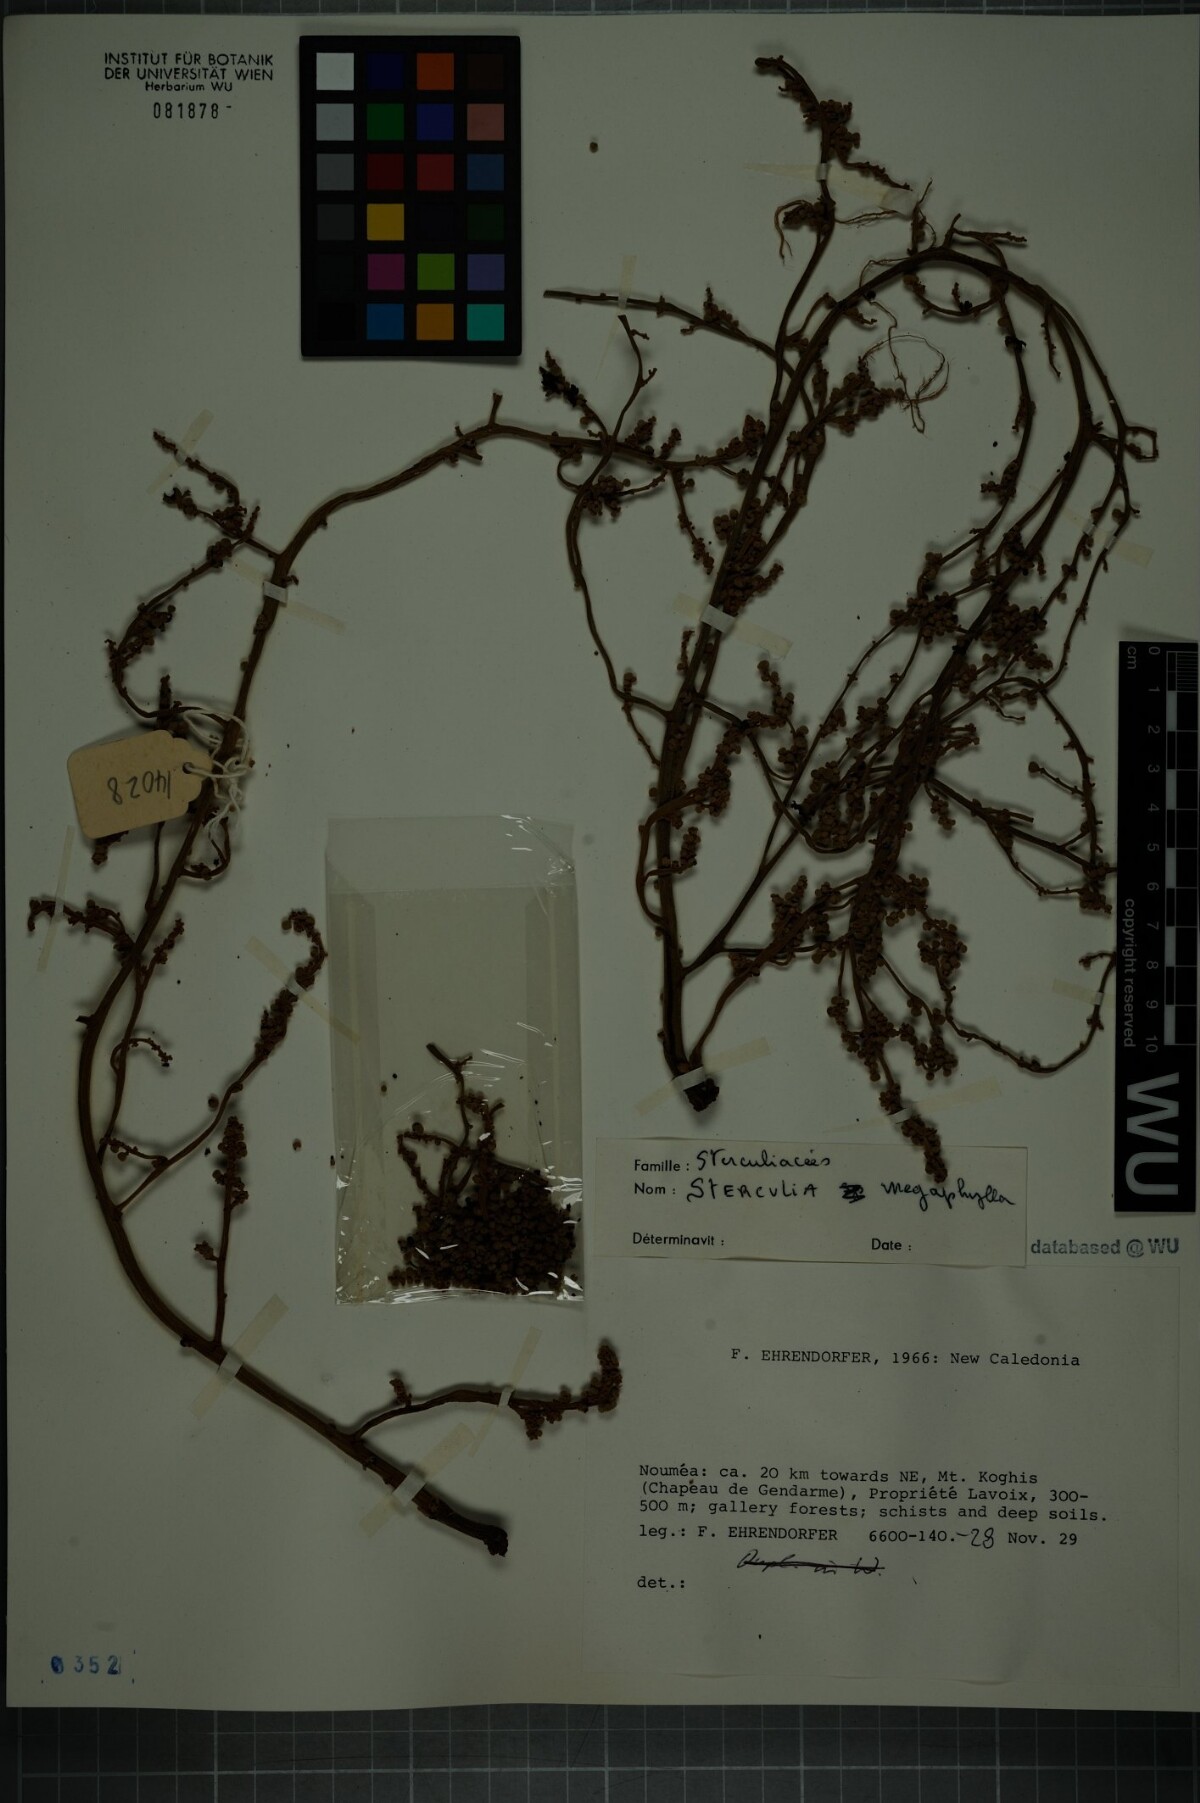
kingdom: Plantae
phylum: Tracheophyta
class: Magnoliopsida
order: Malvales
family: Malvaceae
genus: Acropogon
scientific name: Acropogon megaphyllus
